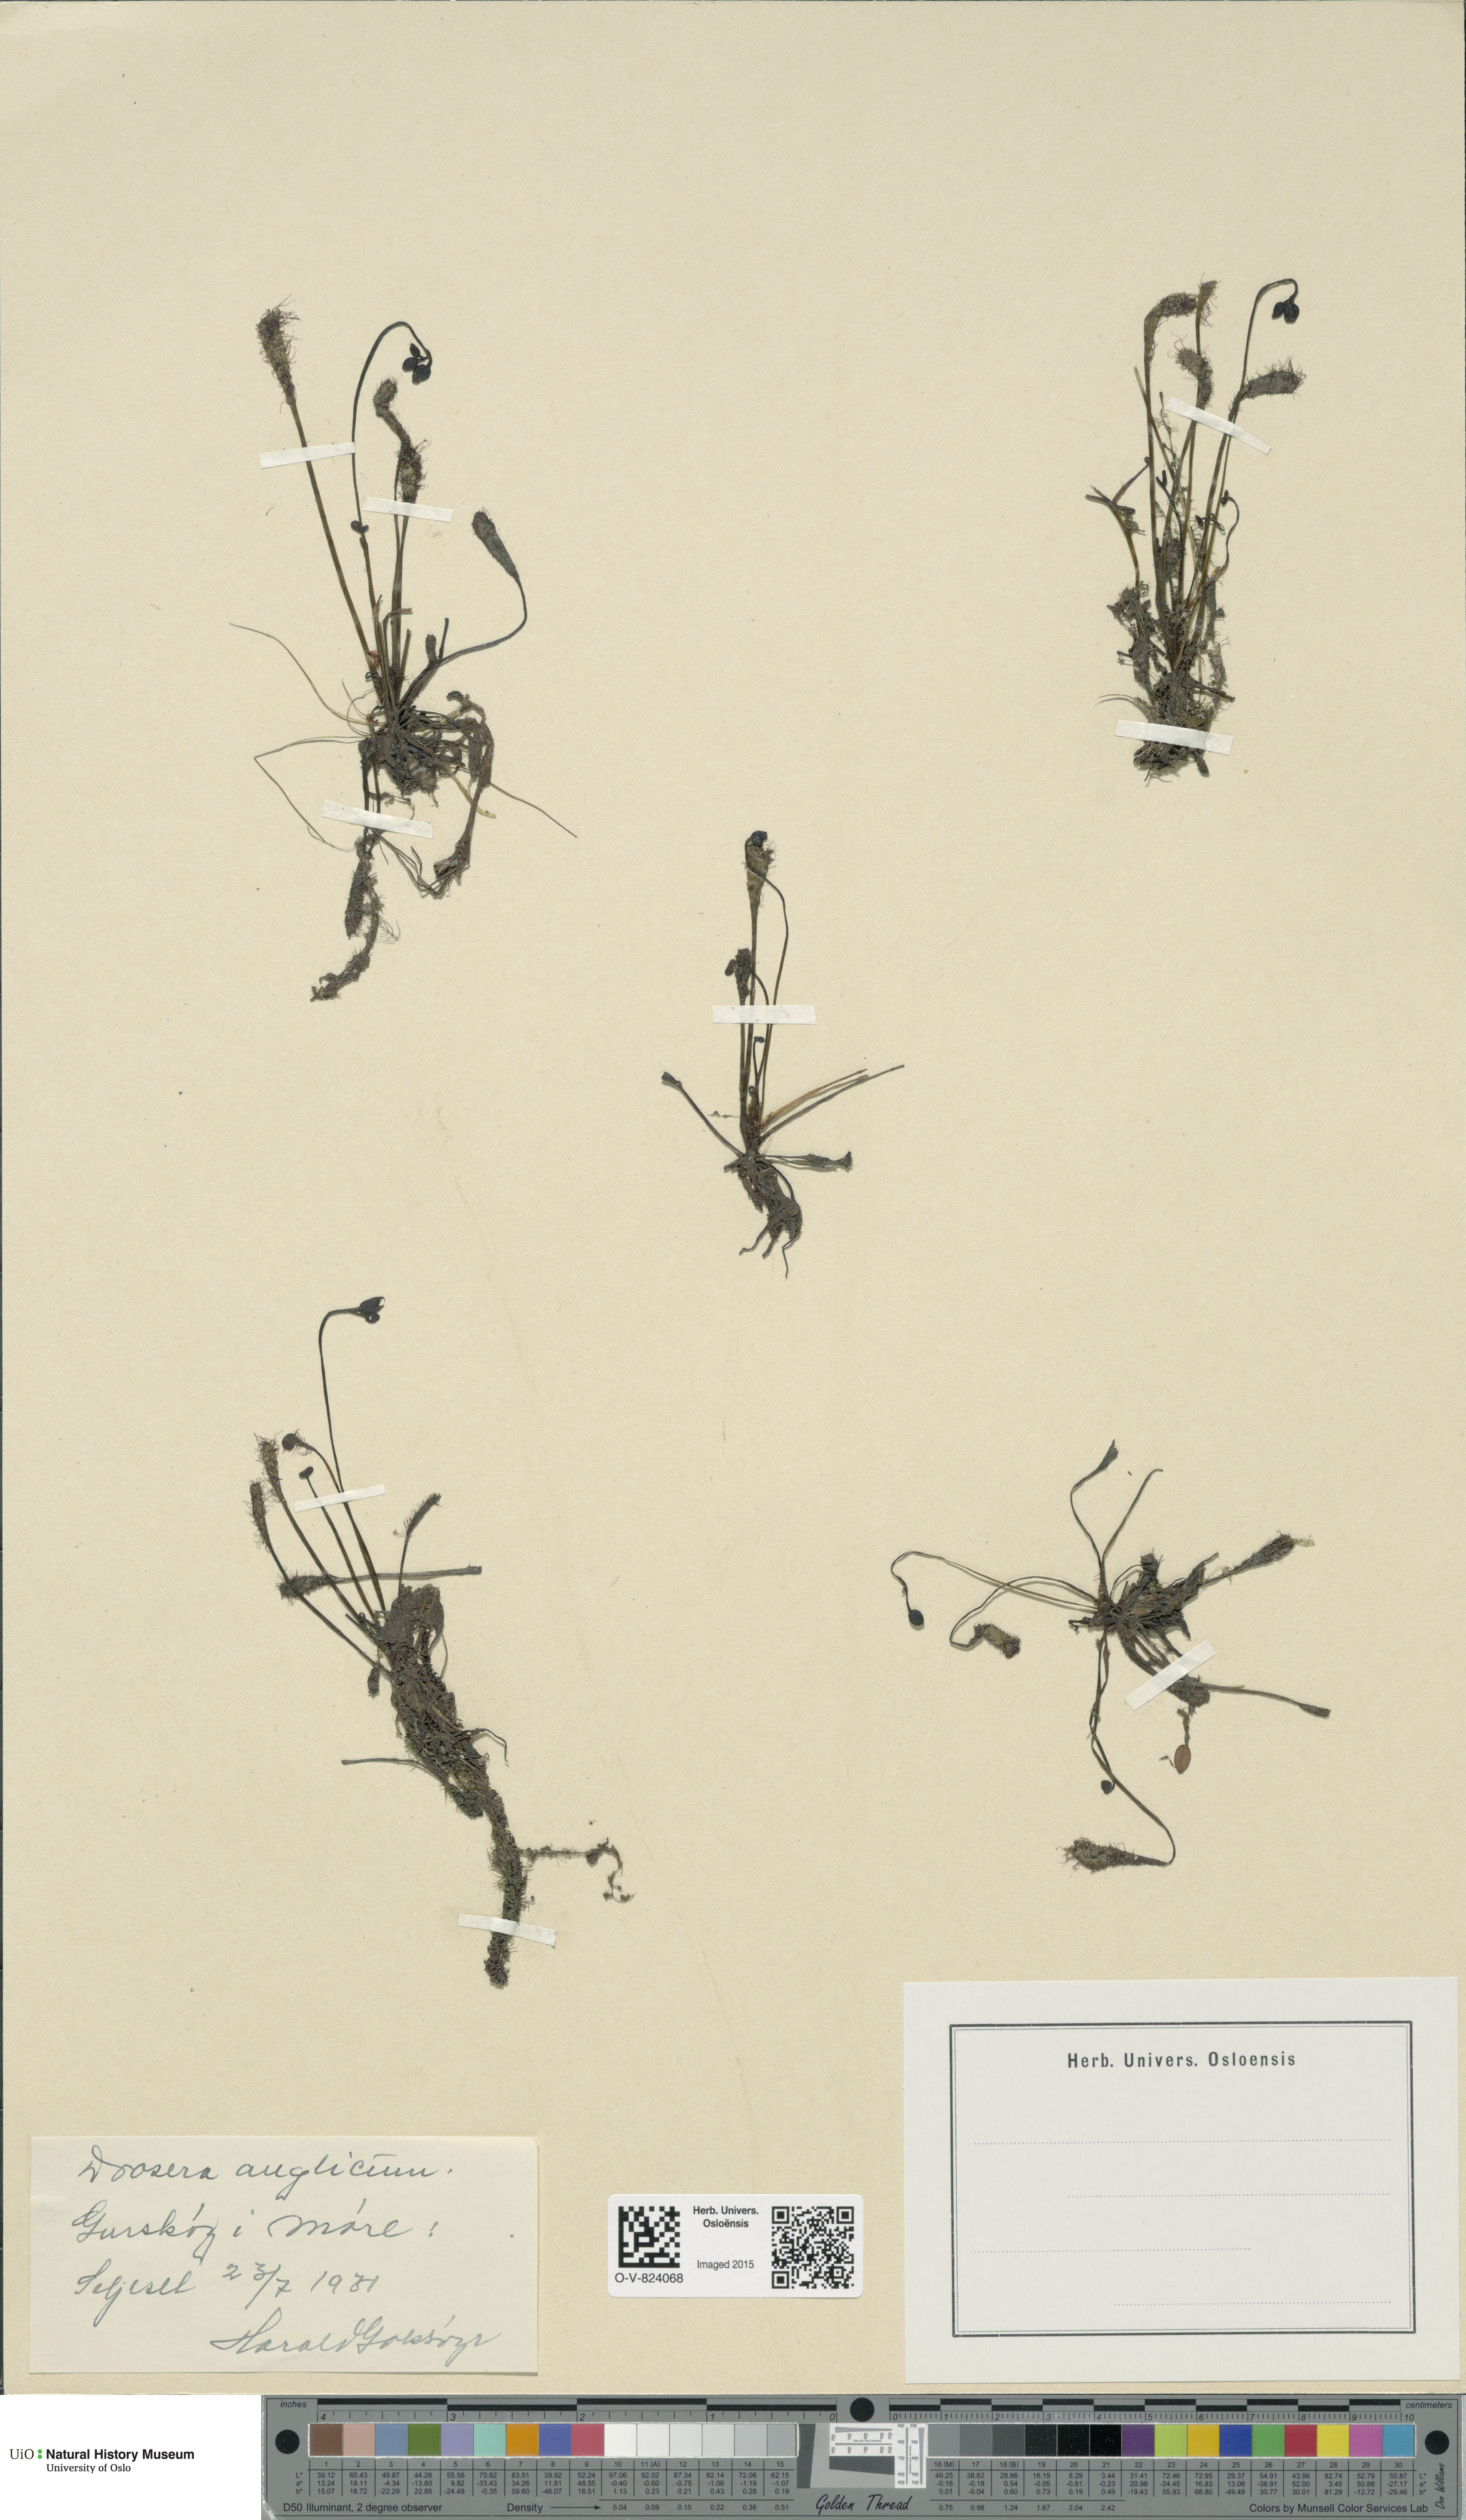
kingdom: Plantae
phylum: Tracheophyta
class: Magnoliopsida
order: Caryophyllales
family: Droseraceae
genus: Drosera
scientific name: Drosera anglica
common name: Great sundew
